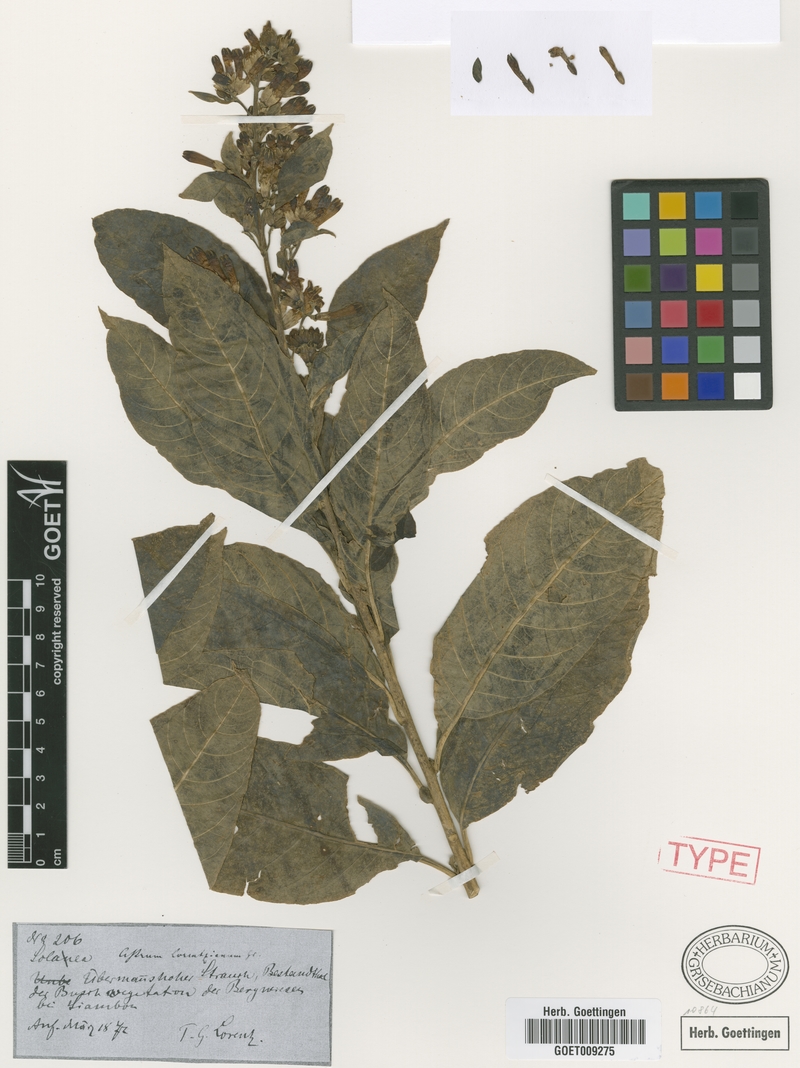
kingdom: Plantae
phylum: Tracheophyta
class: Magnoliopsida
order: Solanales
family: Solanaceae
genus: Cestrum
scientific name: Cestrum lorentzianum
